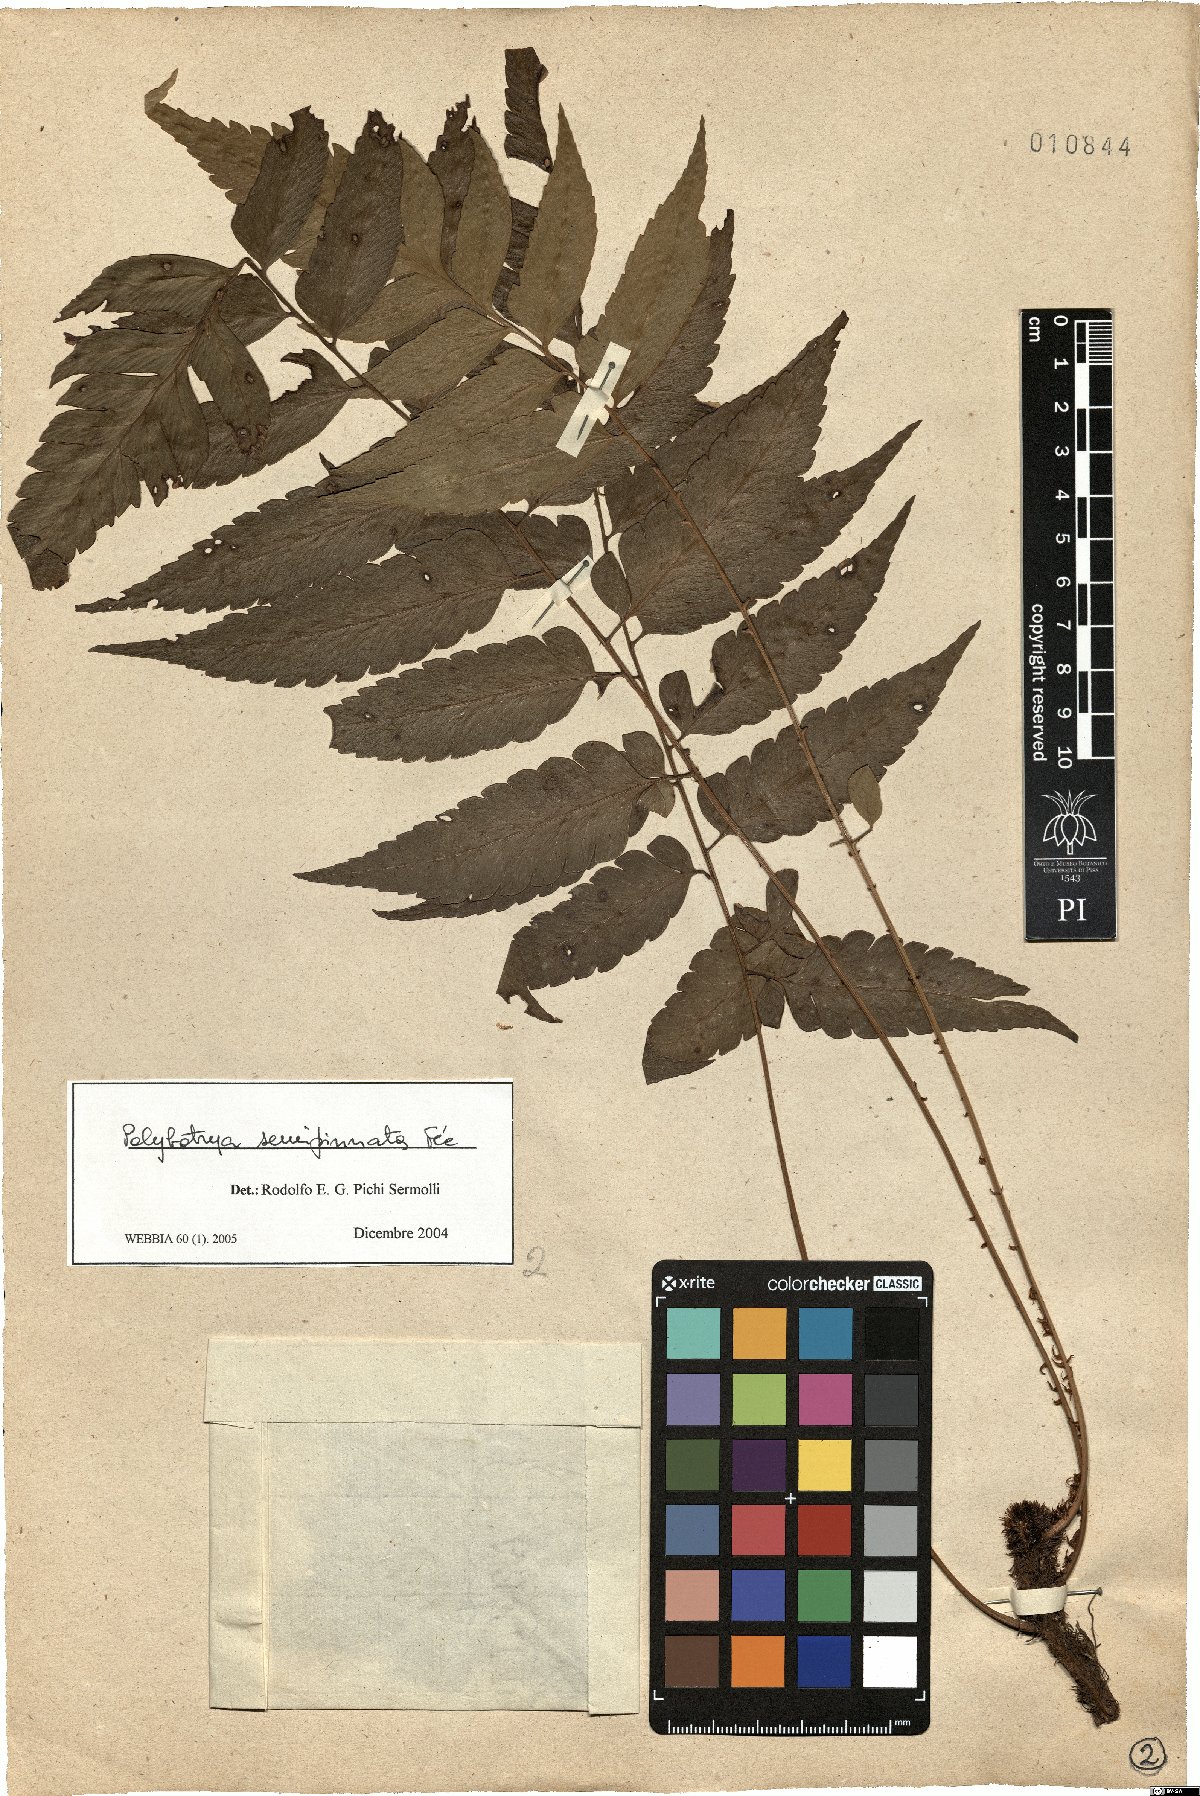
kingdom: Plantae
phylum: Tracheophyta
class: Polypodiopsida
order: Polypodiales
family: Dryopteridaceae
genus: Polybotrya
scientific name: Polybotrya semipinnata
